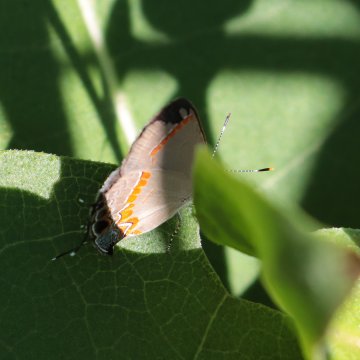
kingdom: Animalia
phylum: Arthropoda
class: Insecta
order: Lepidoptera
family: Lycaenidae
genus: Calycopis
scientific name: Calycopis cecrops
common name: Red-banded Hairstreak
